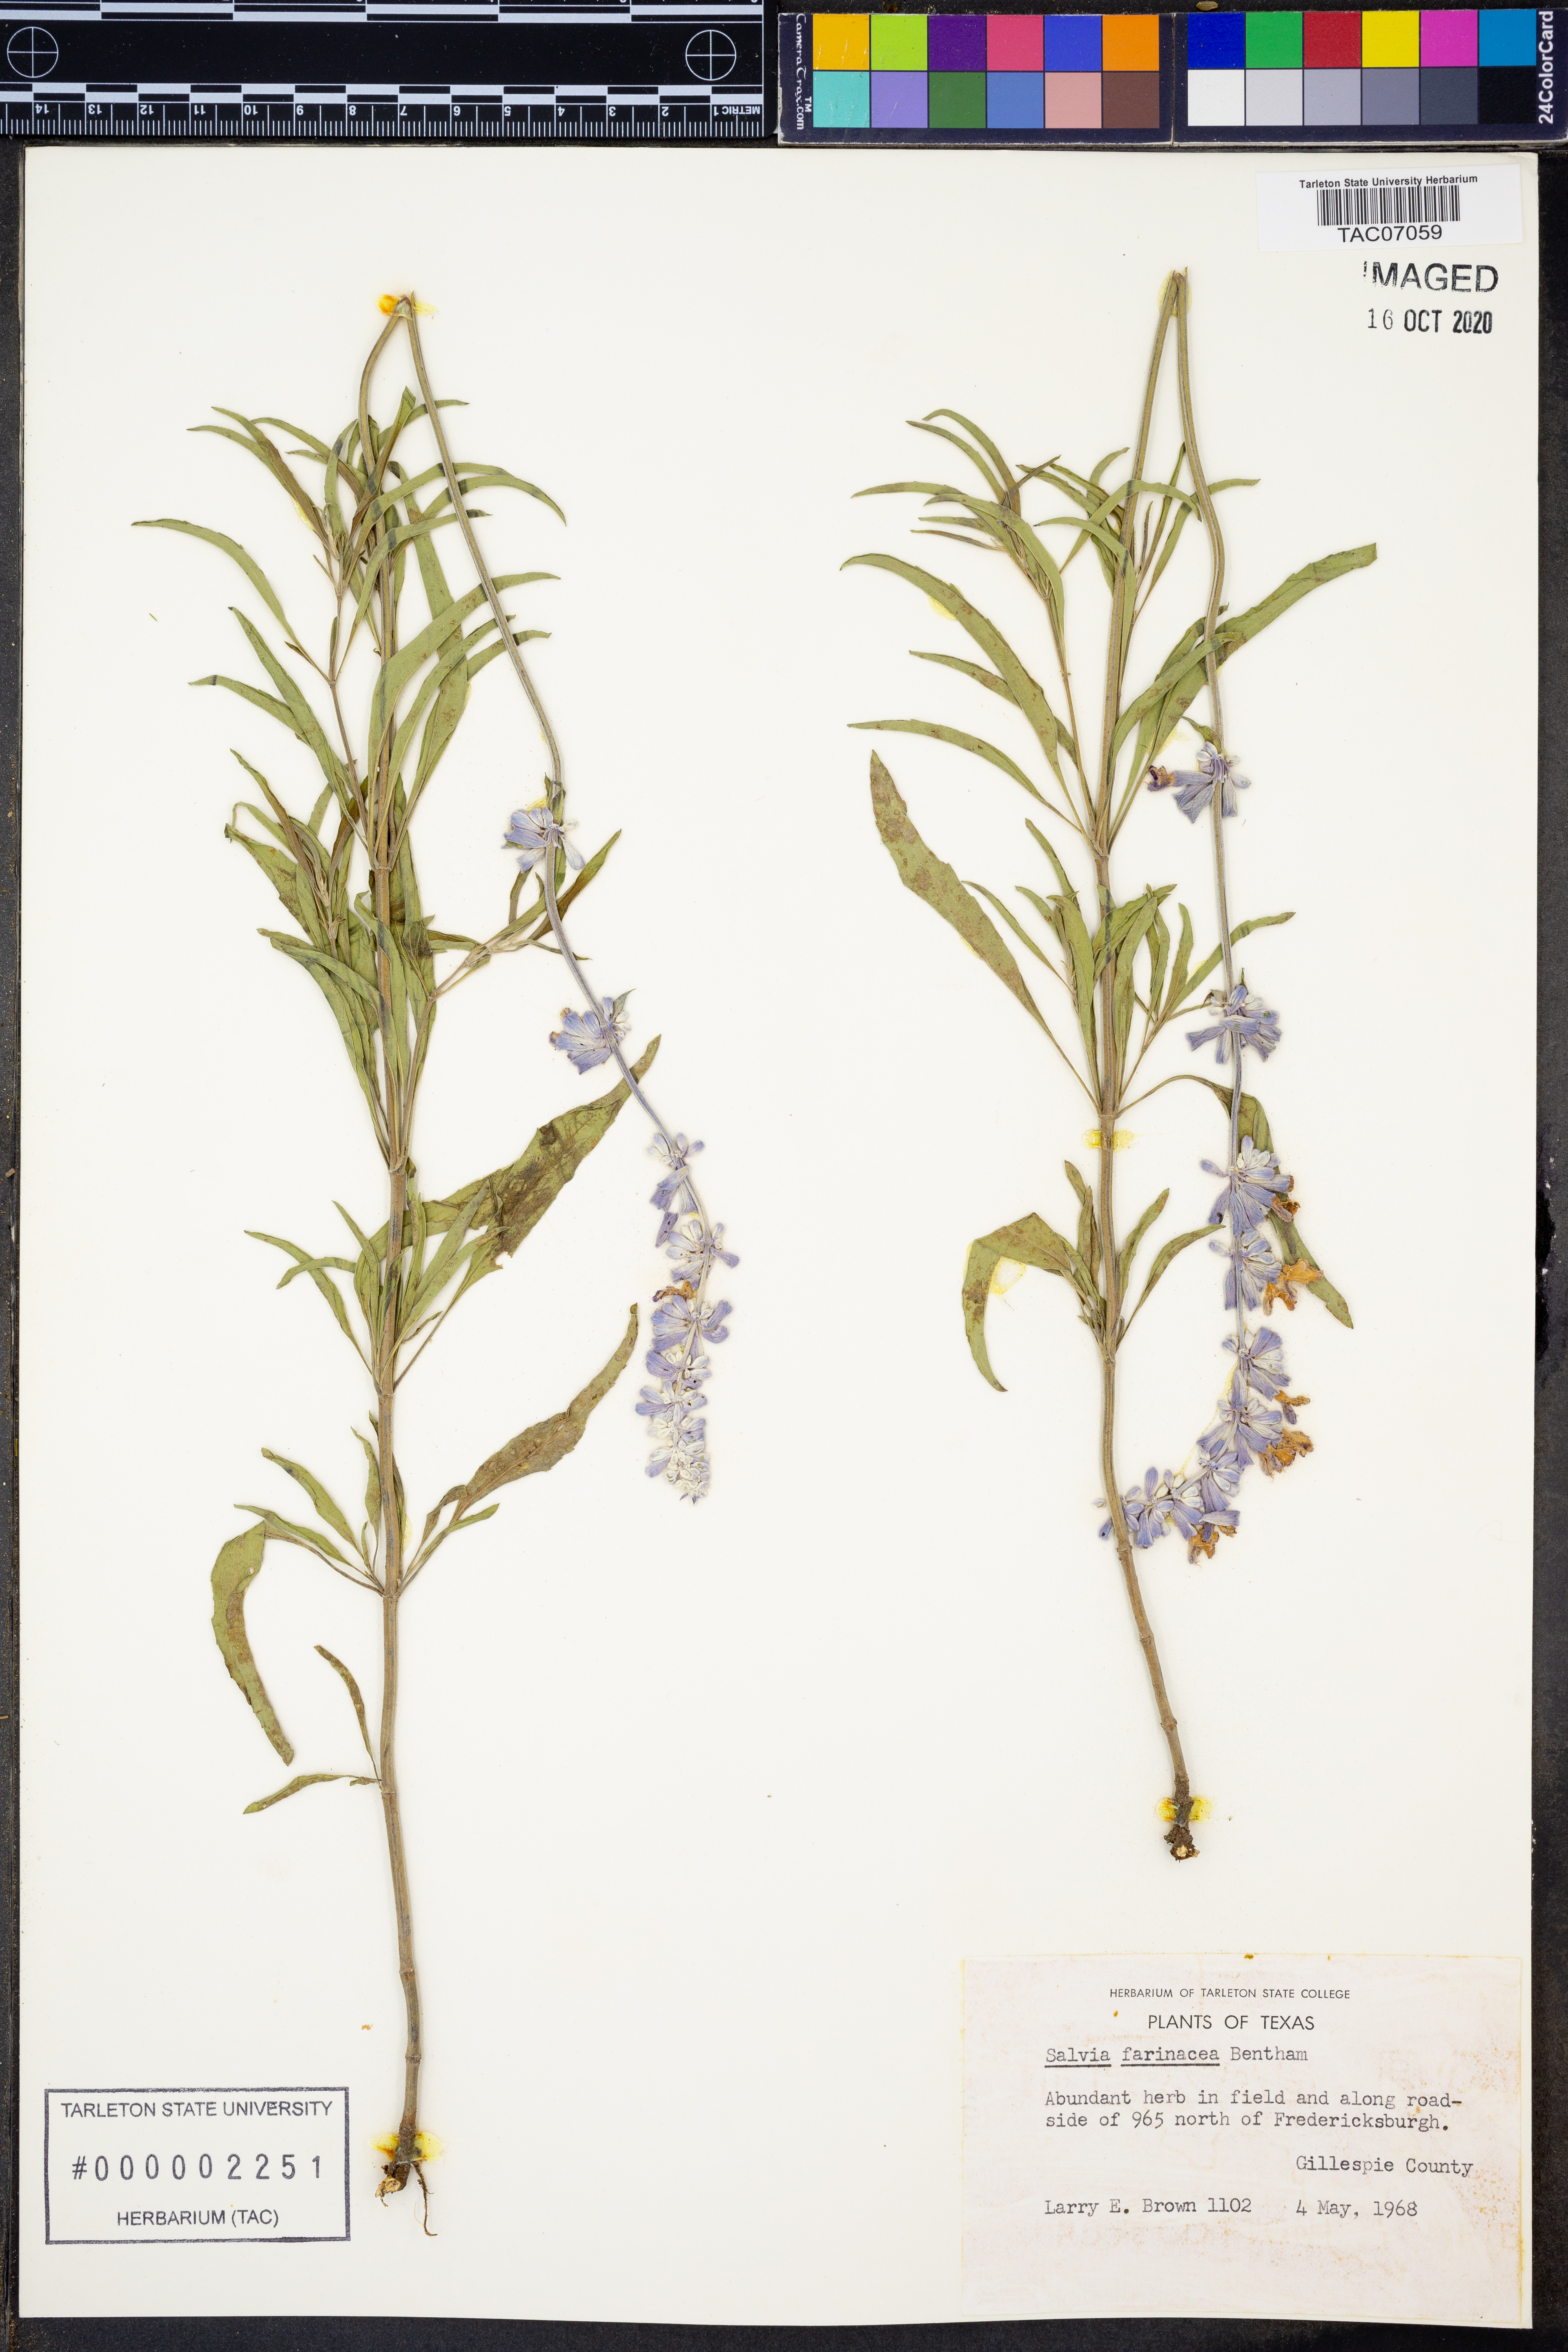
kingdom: Plantae
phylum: Tracheophyta
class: Magnoliopsida
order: Lamiales
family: Lamiaceae
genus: Salvia
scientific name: Salvia farinacea
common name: Mealy sage
